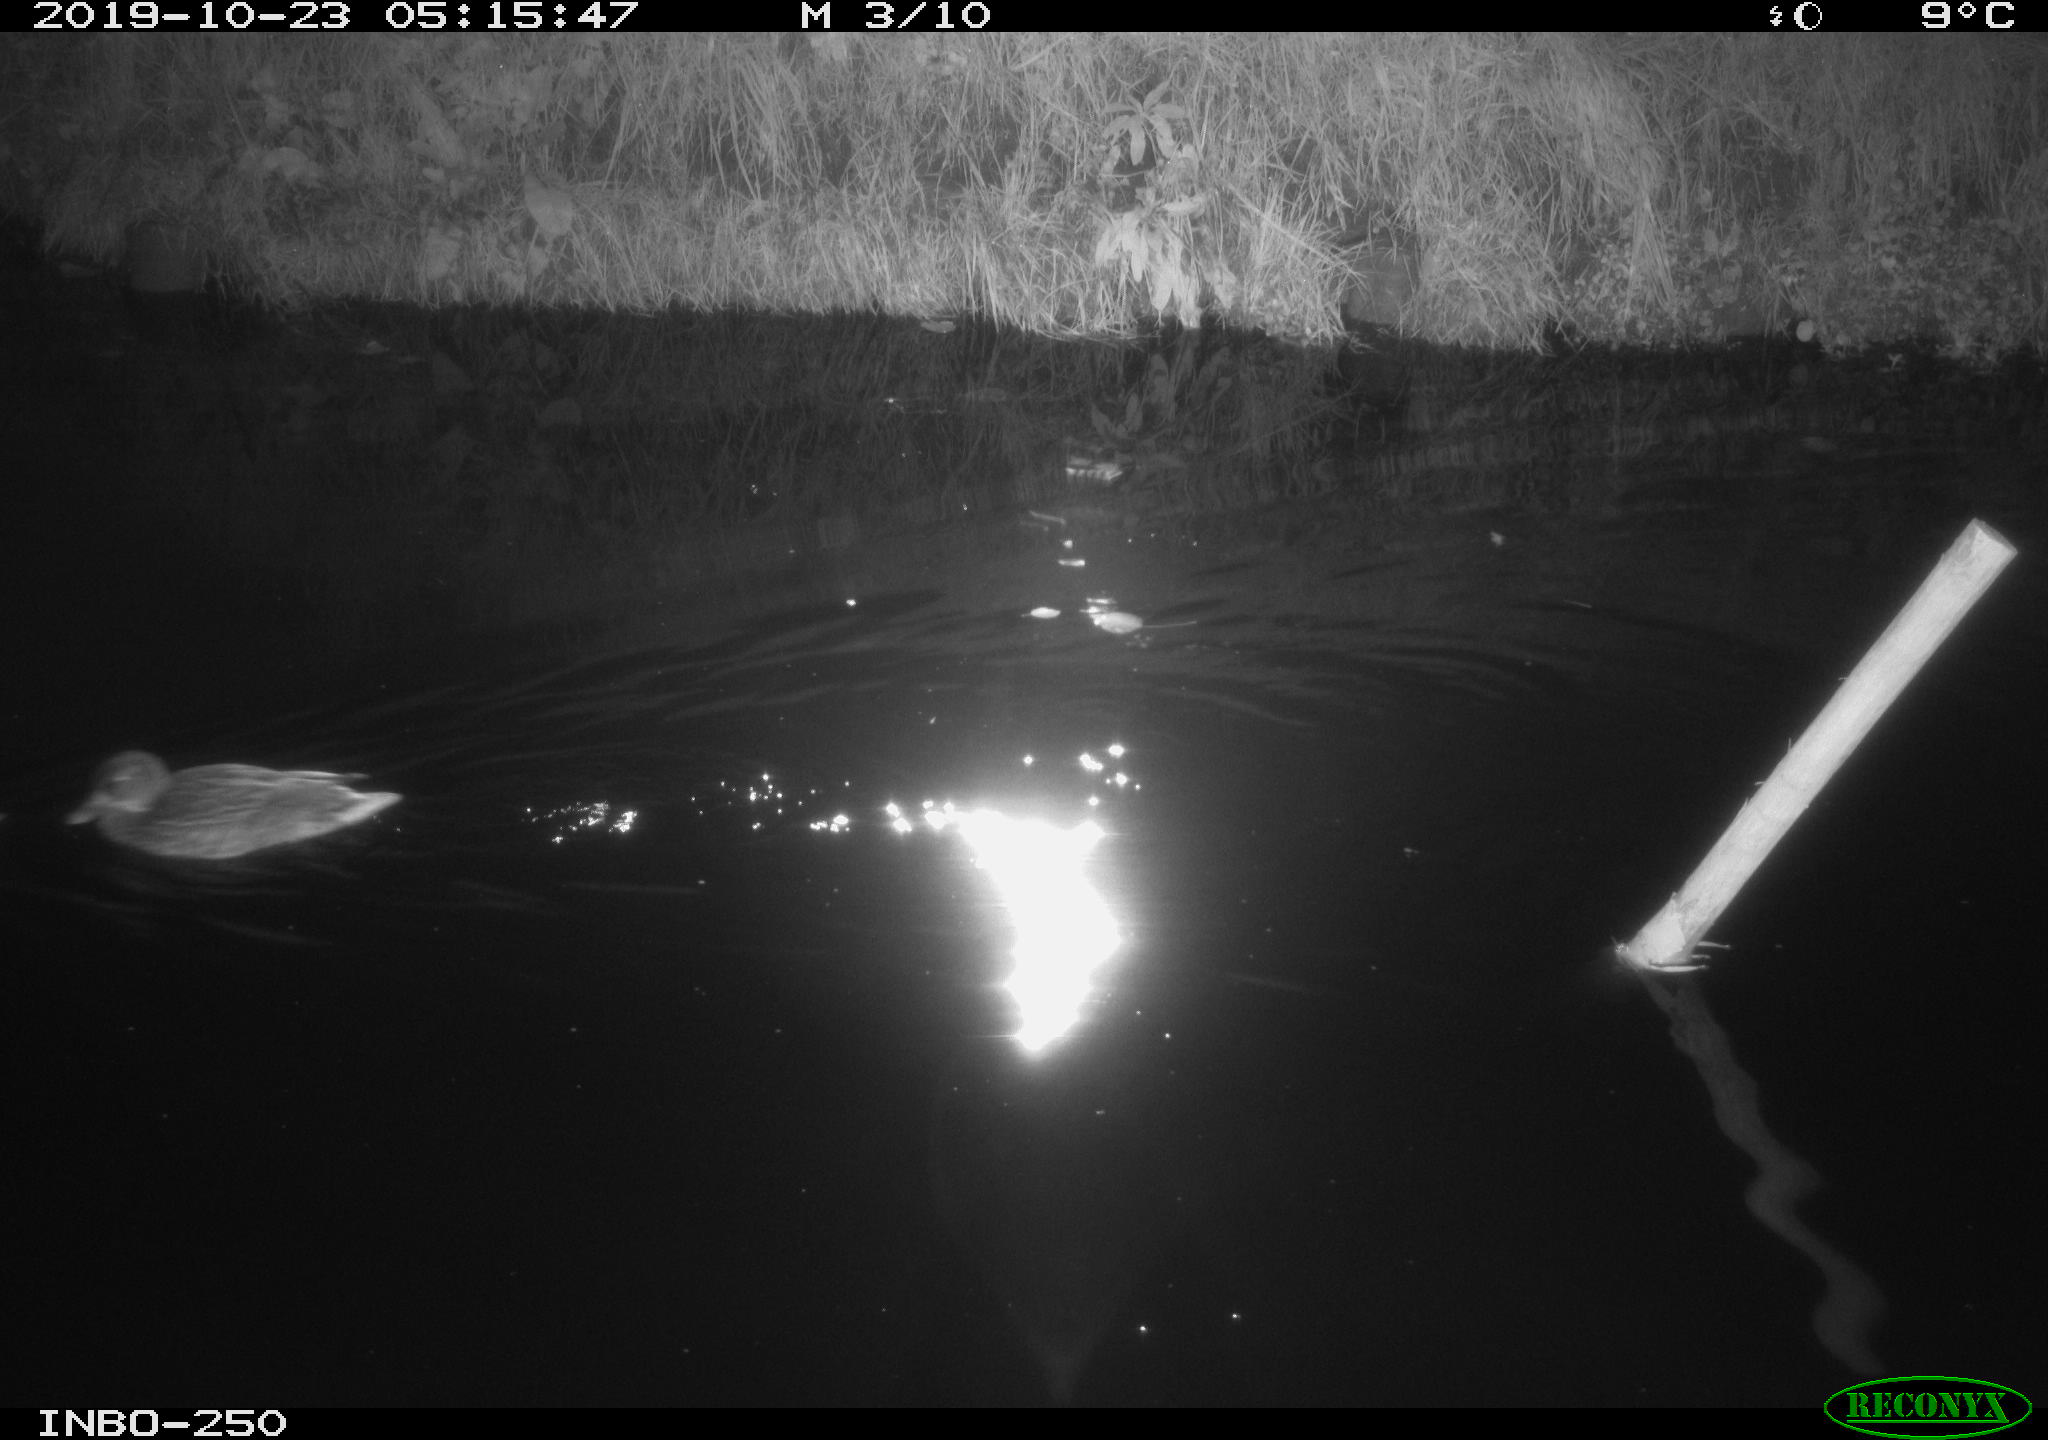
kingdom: Animalia
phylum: Chordata
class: Aves
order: Anseriformes
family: Anatidae
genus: Anas
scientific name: Anas platyrhynchos
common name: Mallard
